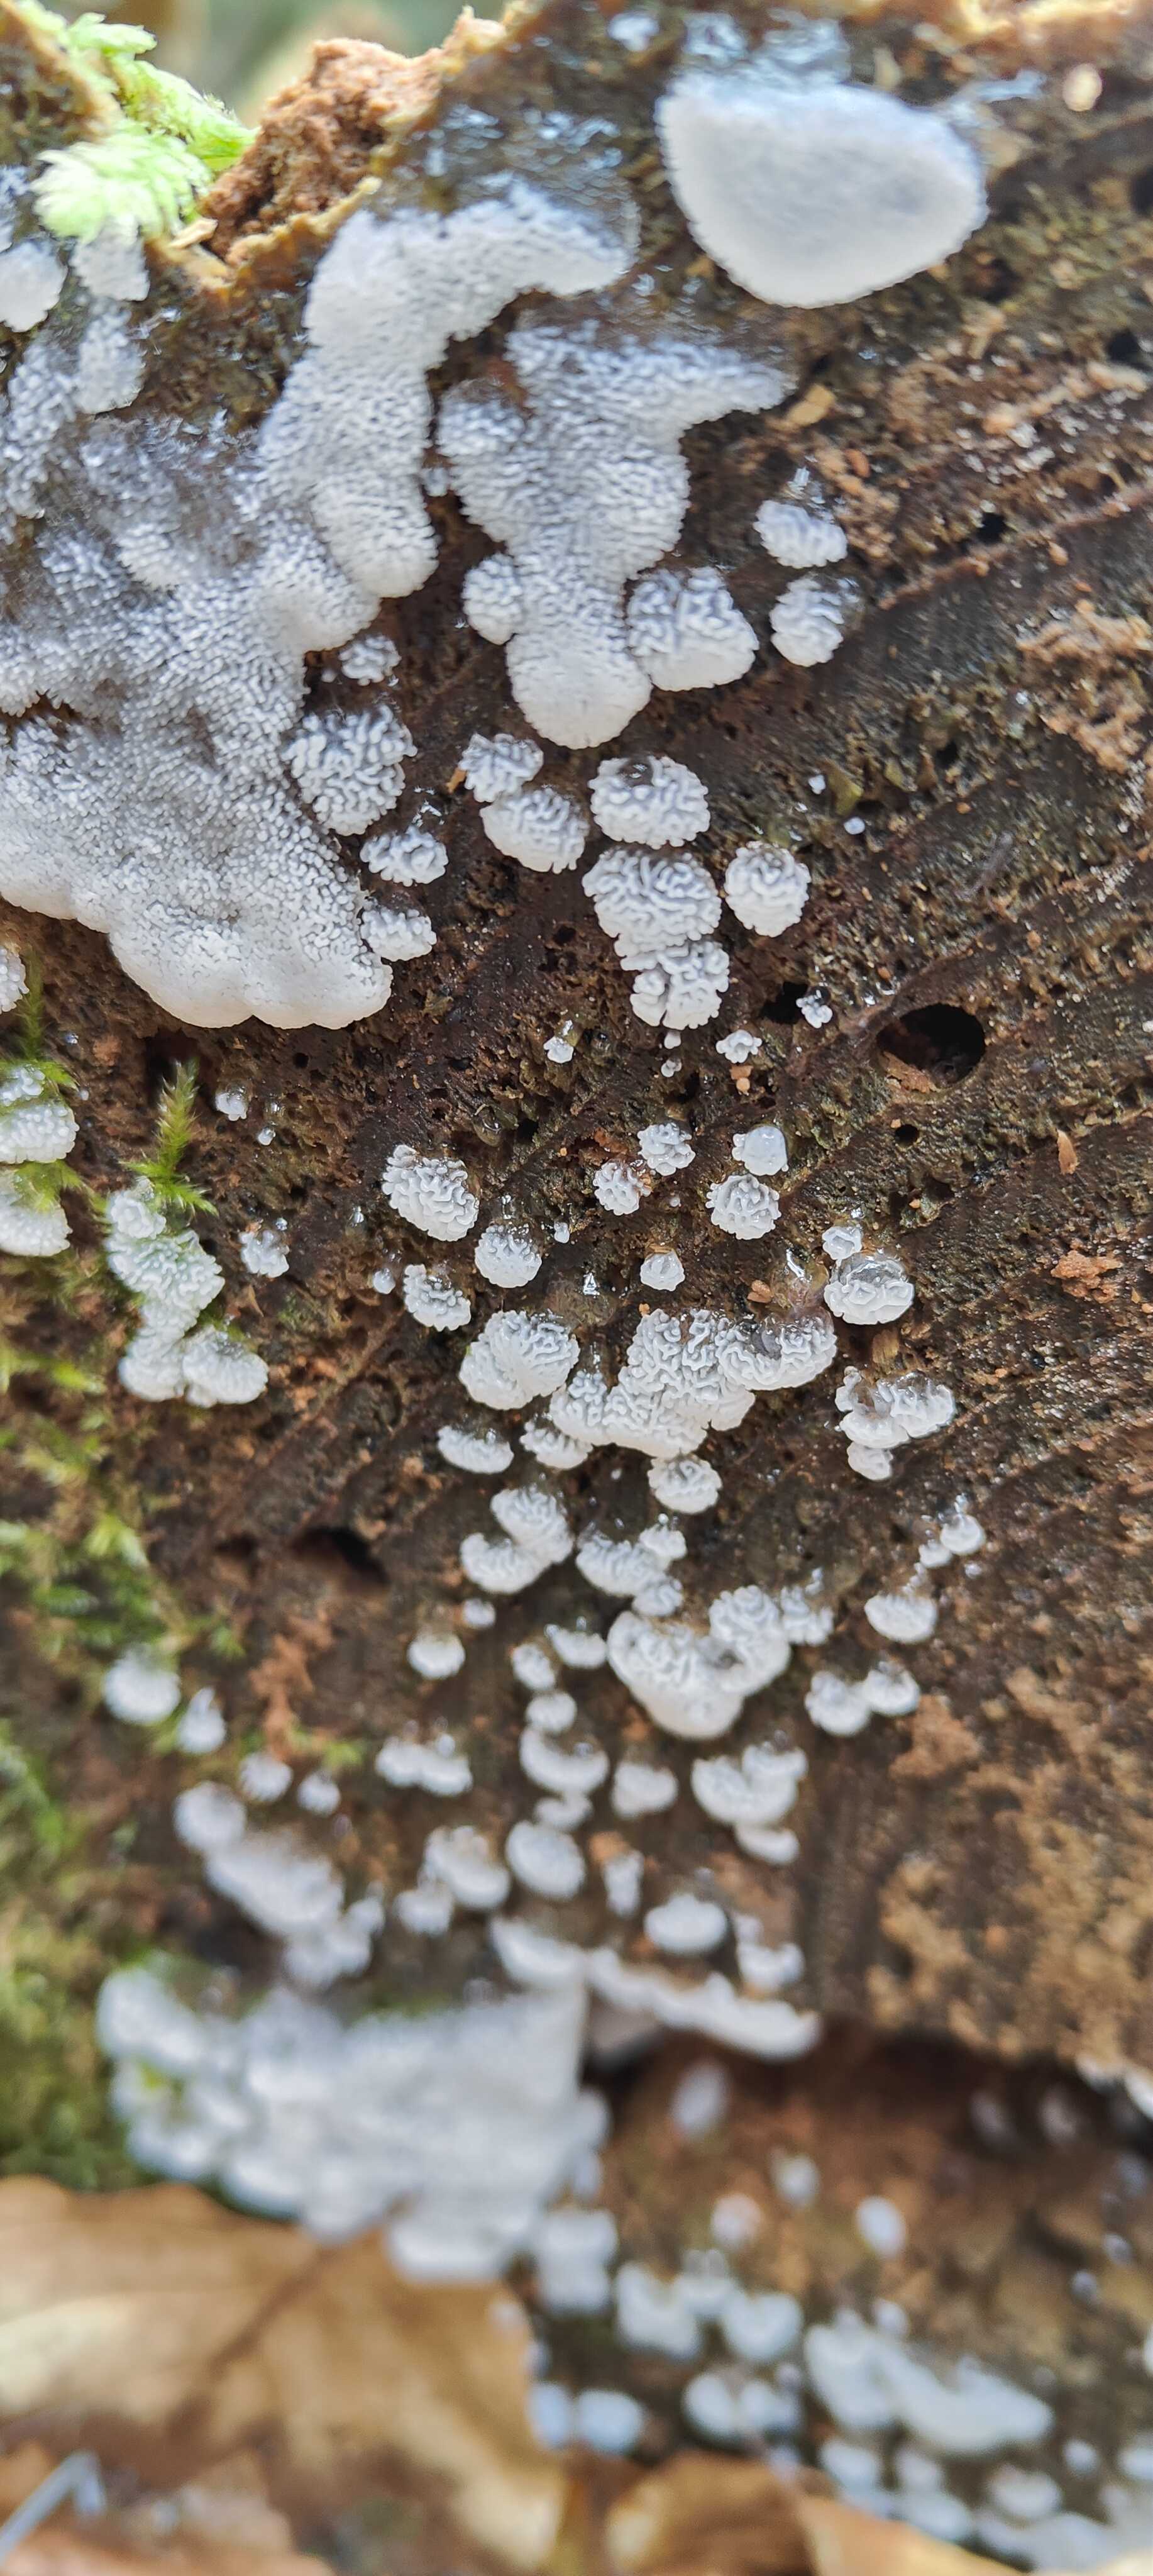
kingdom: Protozoa
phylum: Mycetozoa
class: Protosteliomycetes
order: Ceratiomyxales
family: Ceratiomyxaceae
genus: Ceratiomyxa
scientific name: Ceratiomyxa fruticulosa
